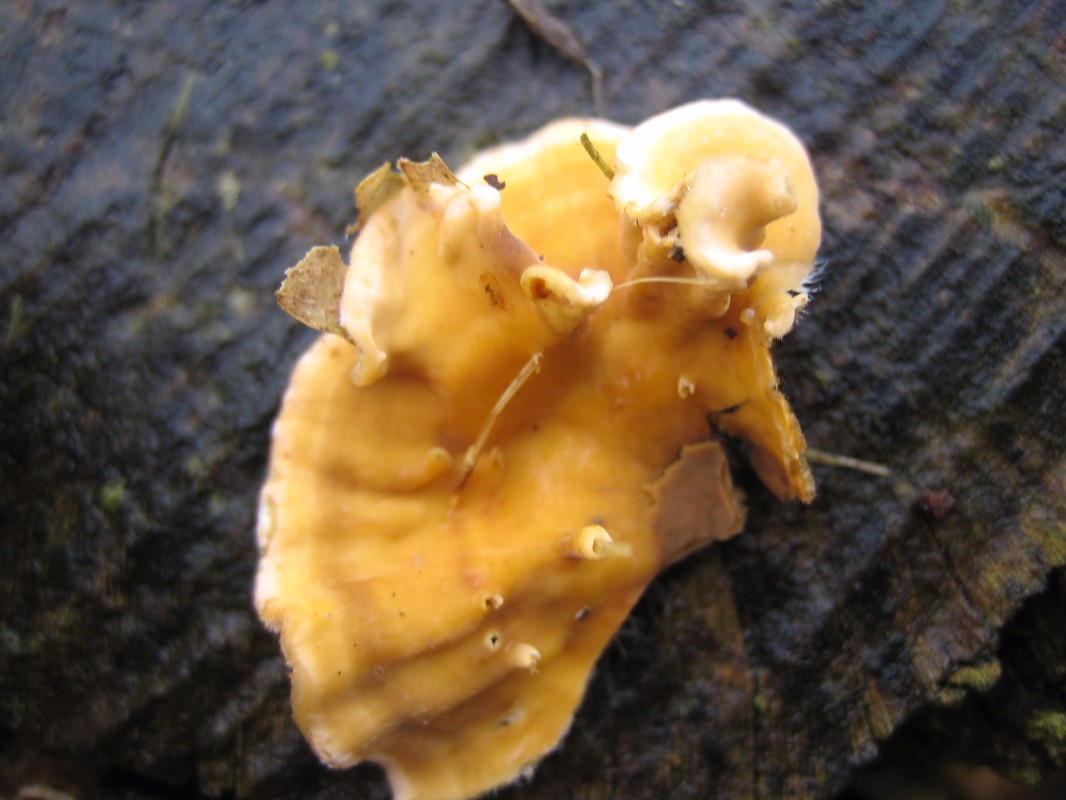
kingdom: Fungi
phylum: Basidiomycota
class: Agaricomycetes
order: Russulales
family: Stereaceae
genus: Stereum
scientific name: Stereum hirsutum
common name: håret lædersvamp
